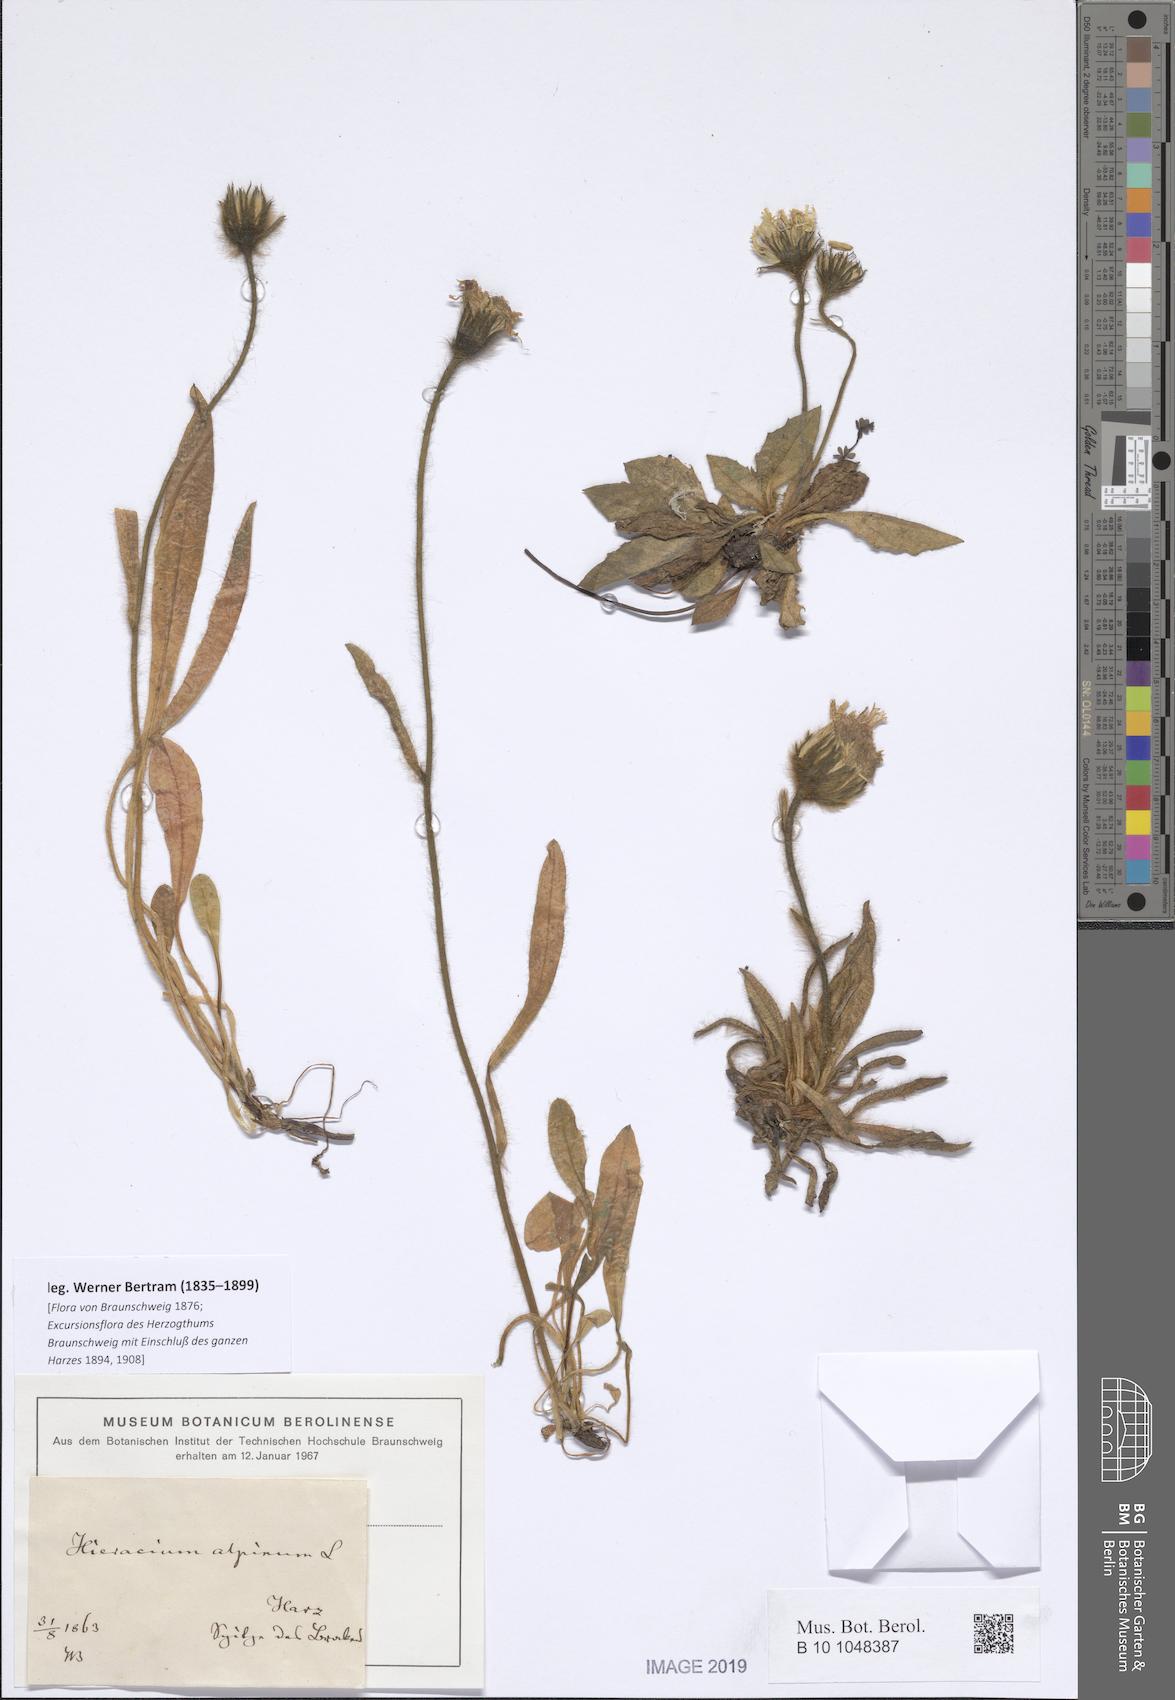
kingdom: Plantae
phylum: Tracheophyta
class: Magnoliopsida
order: Asterales
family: Asteraceae
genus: Hieracium
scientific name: Hieracium nigrescens
